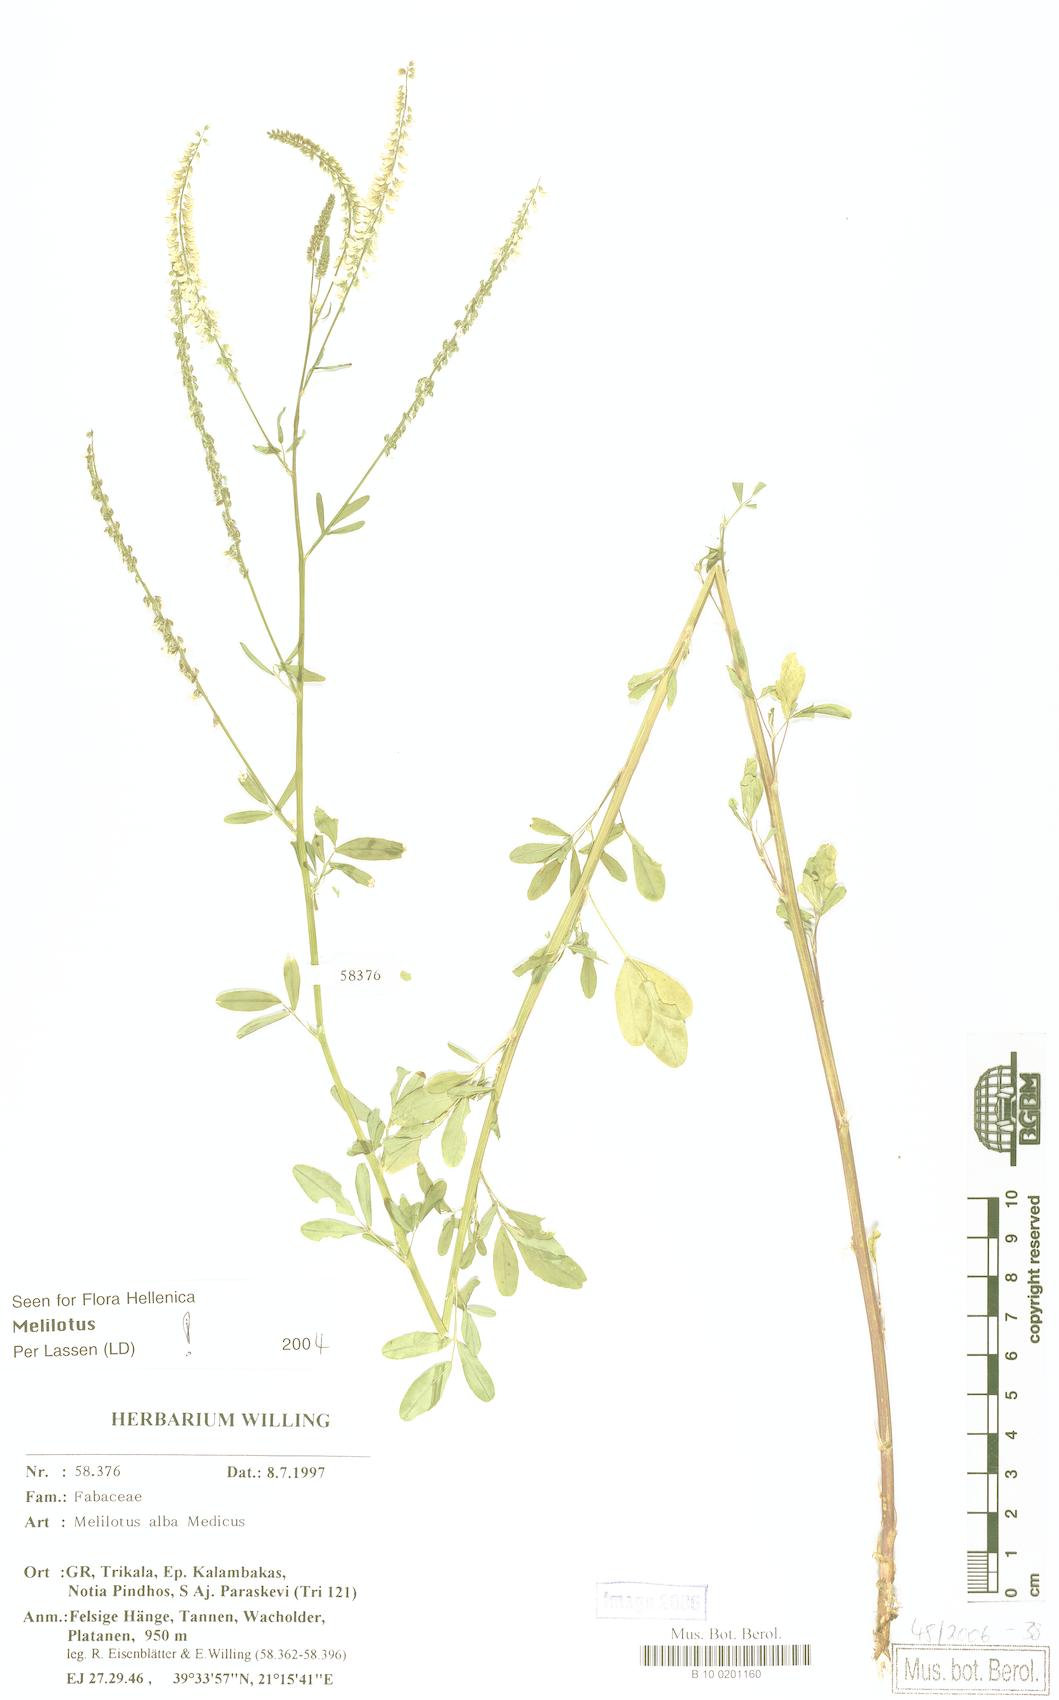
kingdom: Plantae
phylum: Tracheophyta
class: Magnoliopsida
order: Fabales
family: Fabaceae
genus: Melilotus
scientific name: Melilotus albus
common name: White melilot
